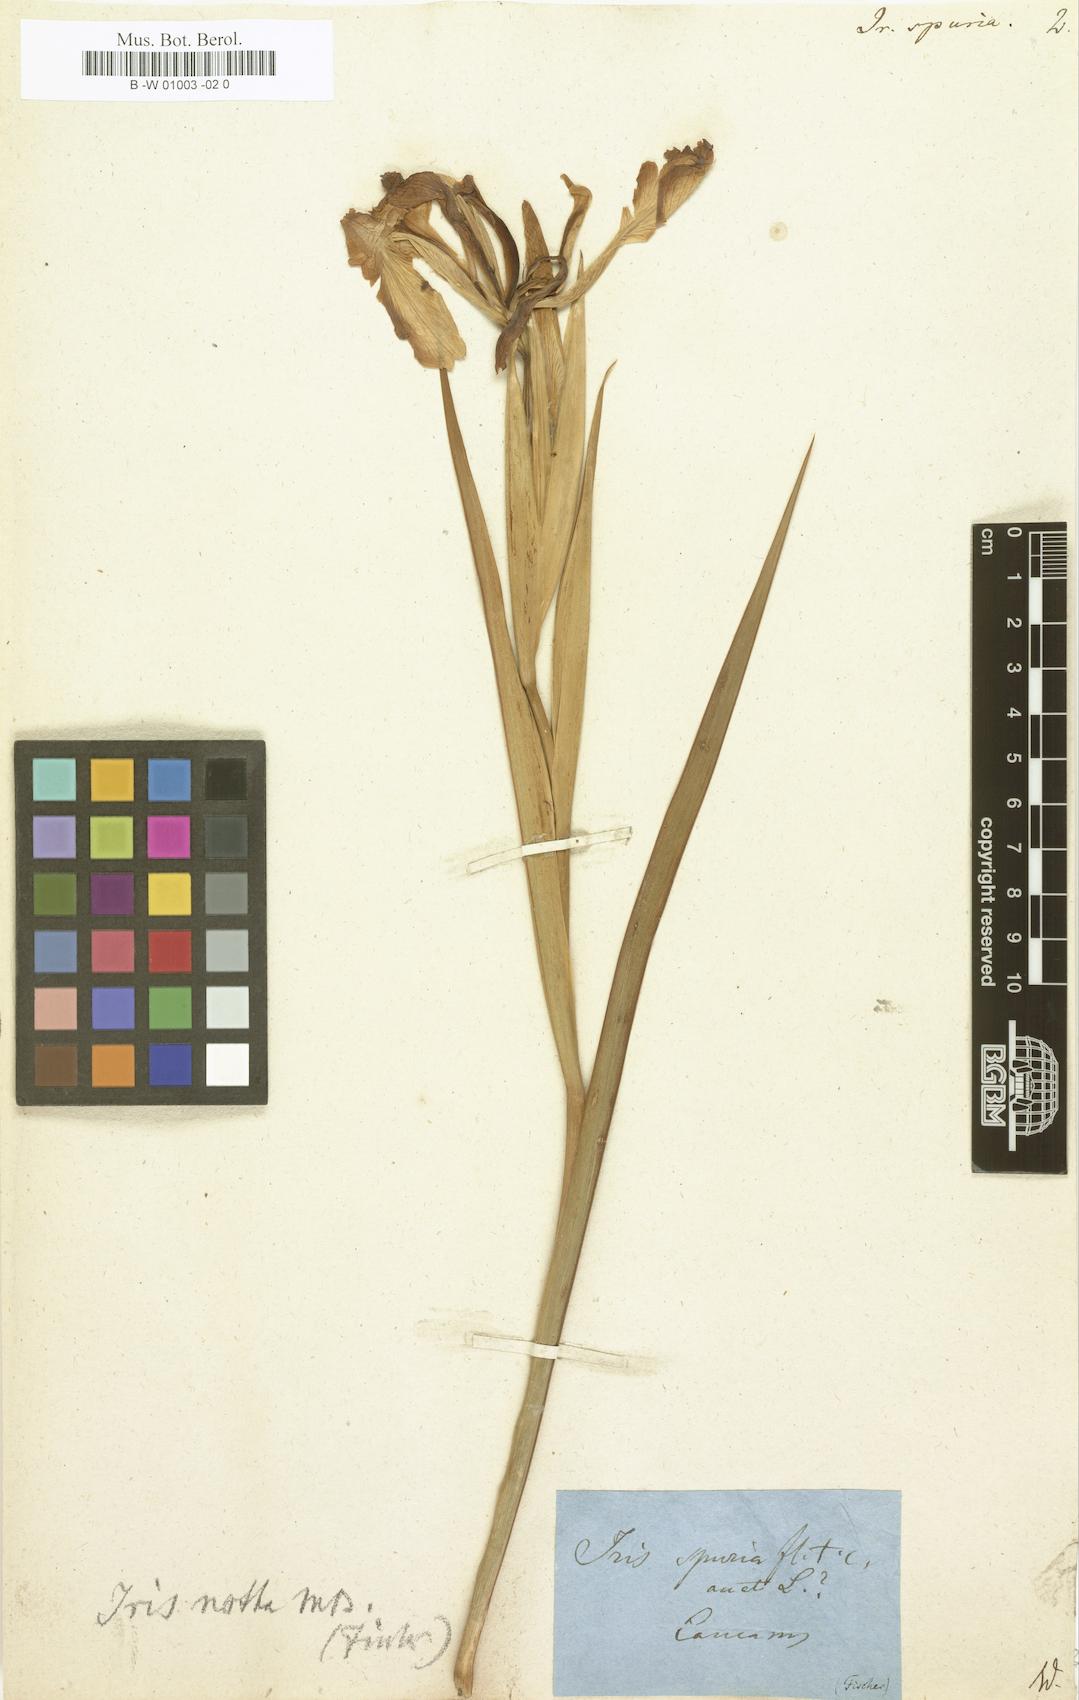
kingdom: Plantae
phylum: Tracheophyta
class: Liliopsida
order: Asparagales
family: Iridaceae
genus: Iris
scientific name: Iris spuria
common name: Blue iris
